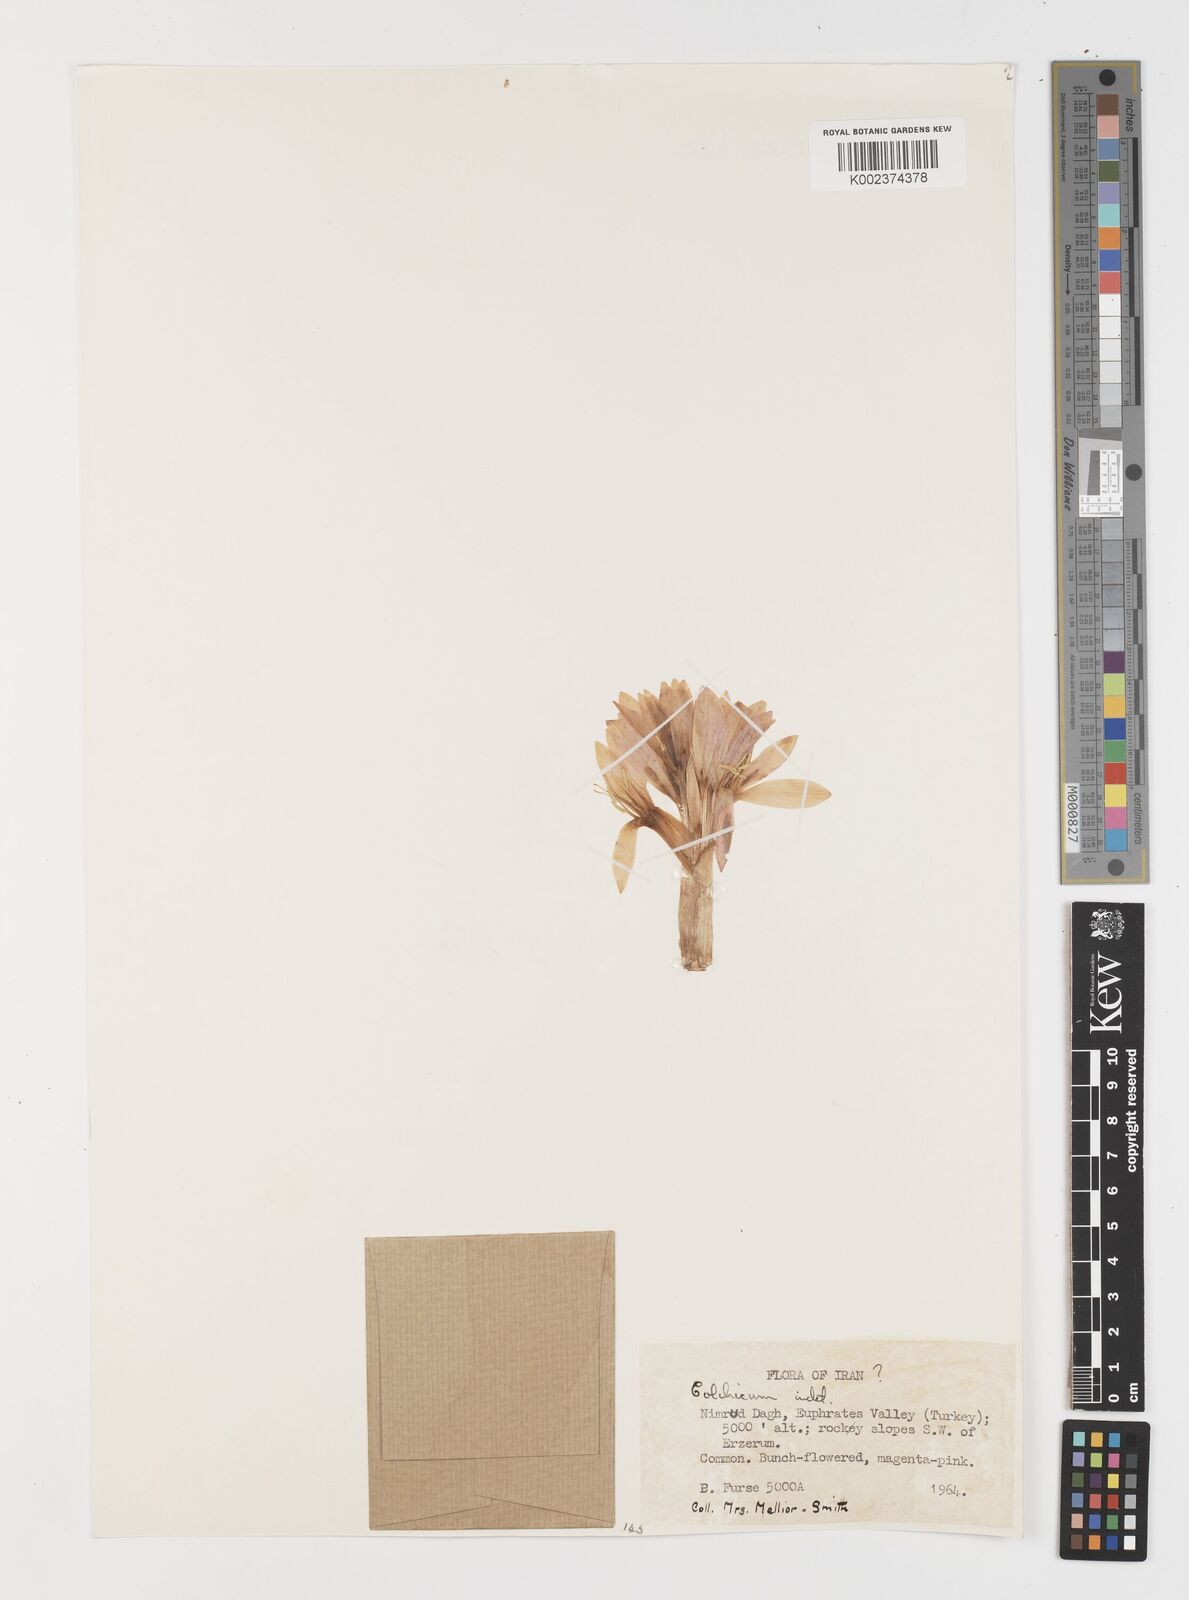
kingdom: Plantae
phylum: Tracheophyta
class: Liliopsida
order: Liliales
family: Colchicaceae
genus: Colchicum
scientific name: Colchicum
